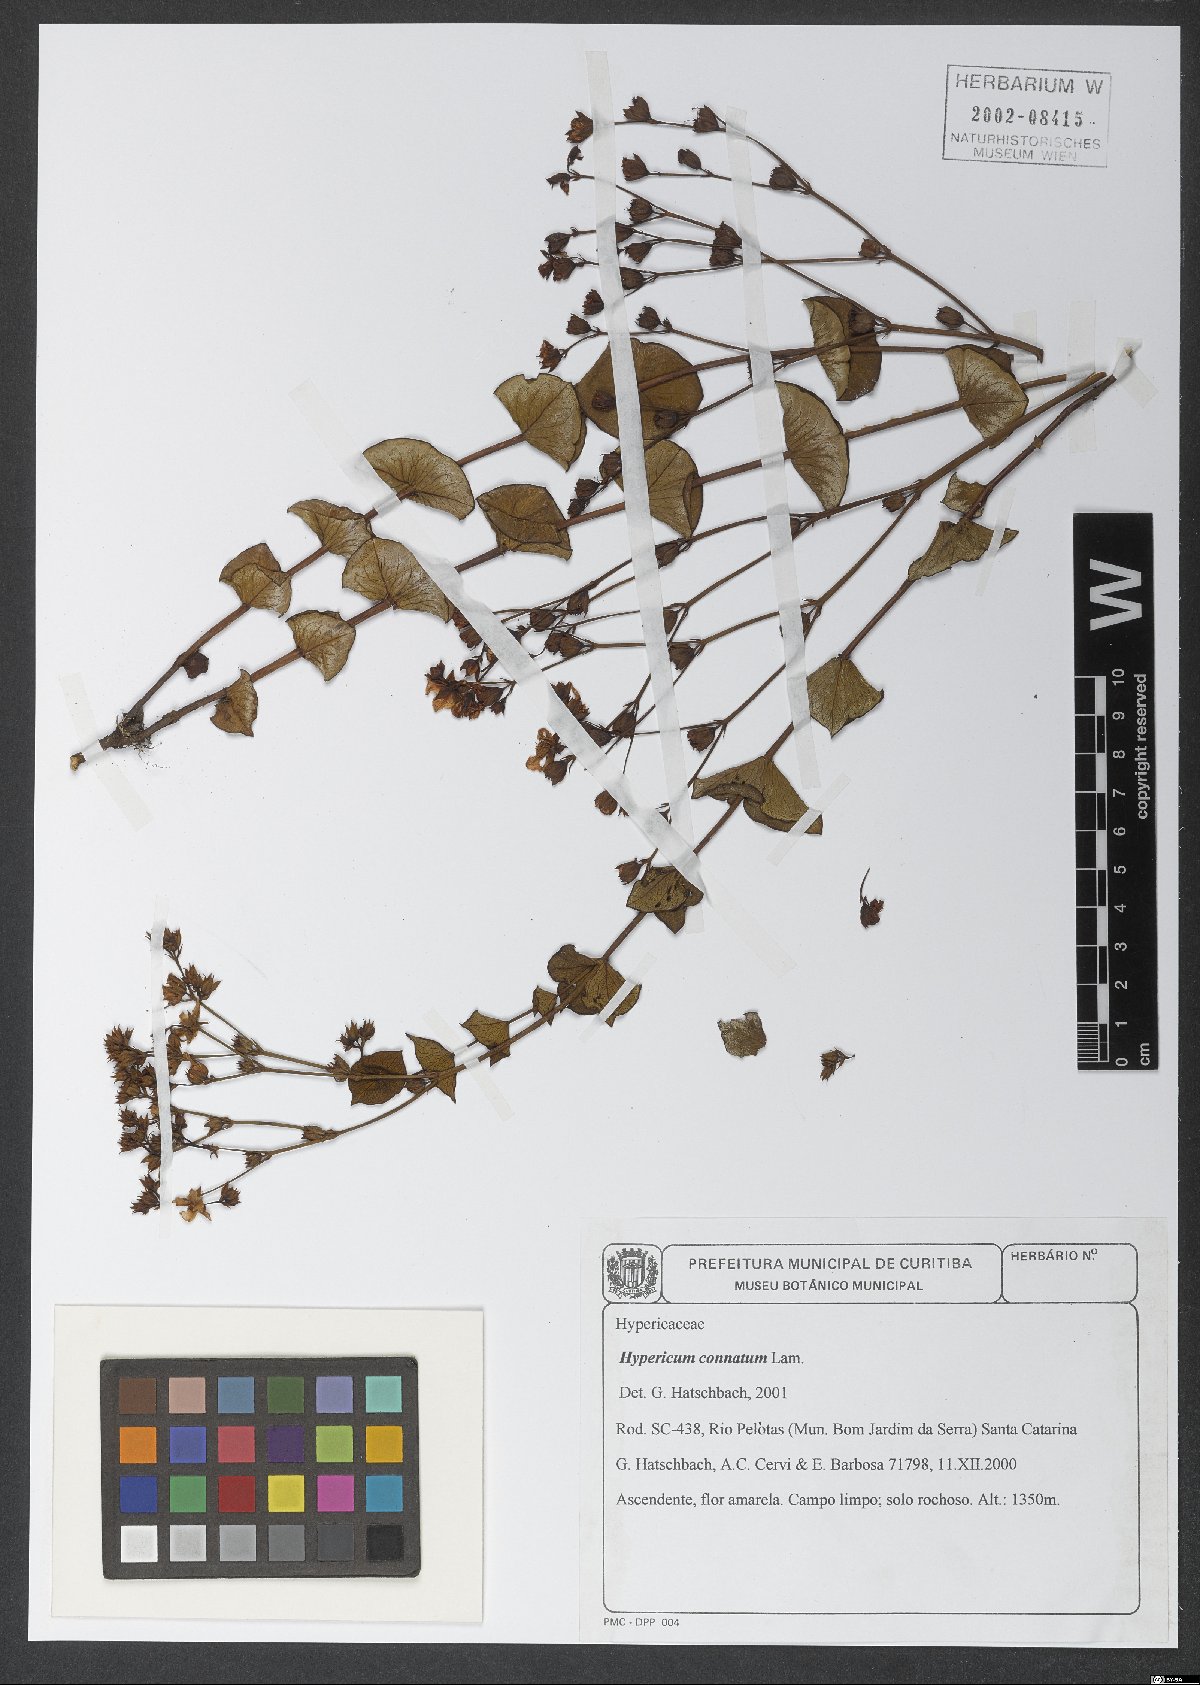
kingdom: Plantae
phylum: Tracheophyta
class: Magnoliopsida
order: Malpighiales
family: Hypericaceae
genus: Hypericum
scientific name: Hypericum connatum
